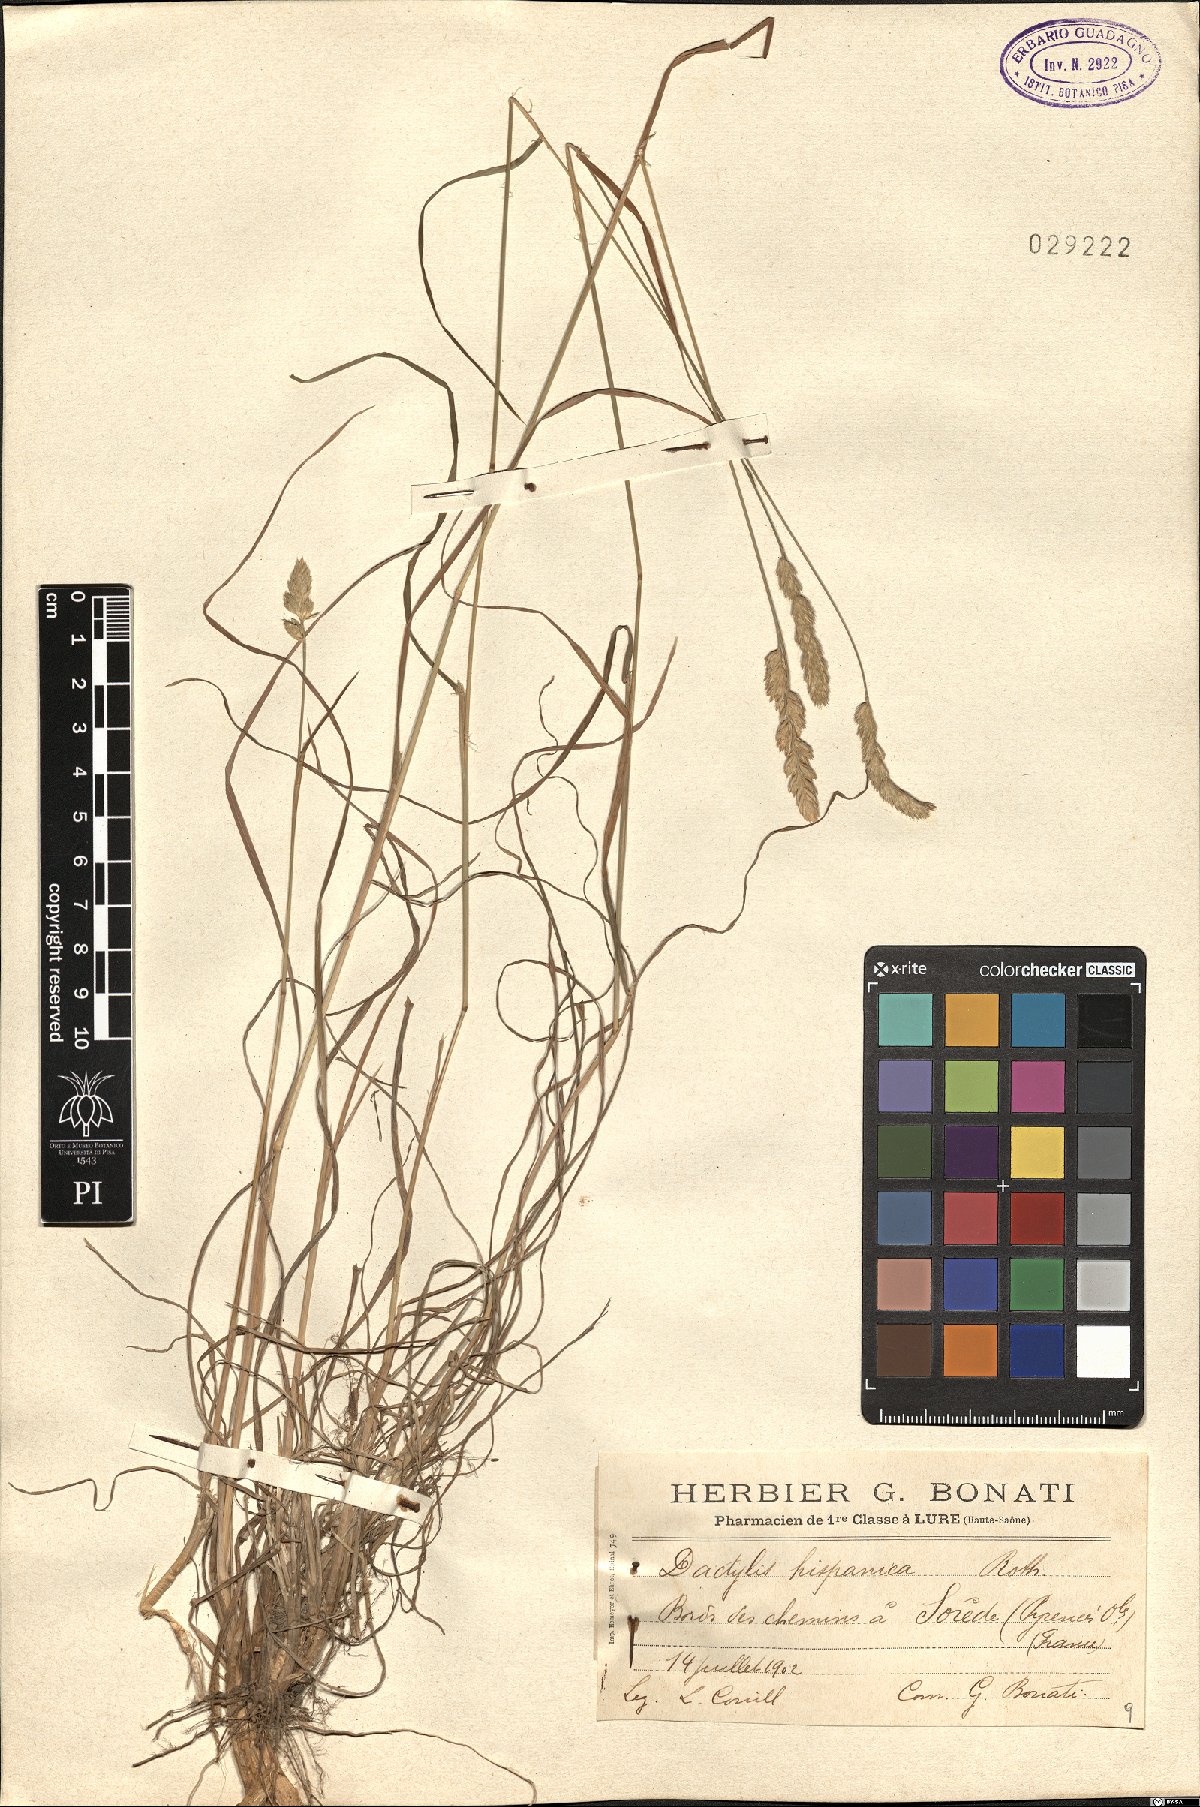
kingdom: Plantae
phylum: Tracheophyta
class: Liliopsida
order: Poales
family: Poaceae
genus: Dactylis
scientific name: Dactylis glomerata
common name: Orchardgrass
